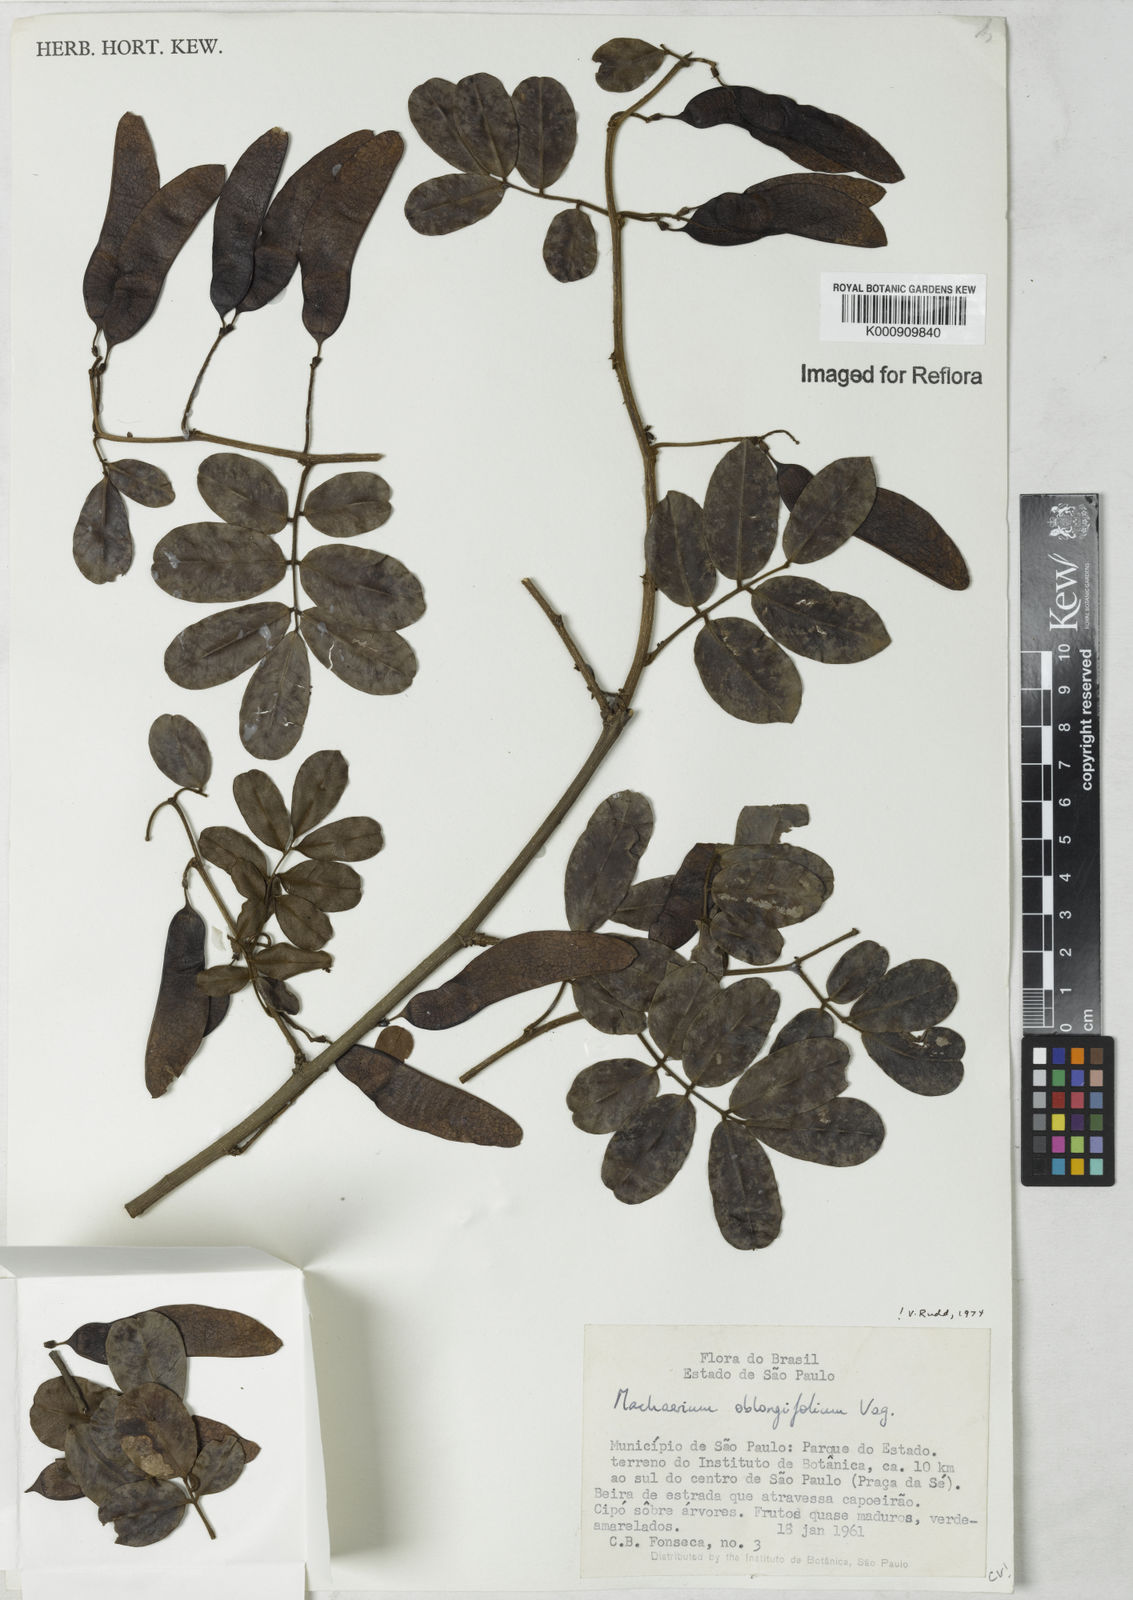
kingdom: Plantae
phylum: Tracheophyta
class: Magnoliopsida
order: Fabales
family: Fabaceae
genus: Machaerium
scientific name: Machaerium oblongifolium
